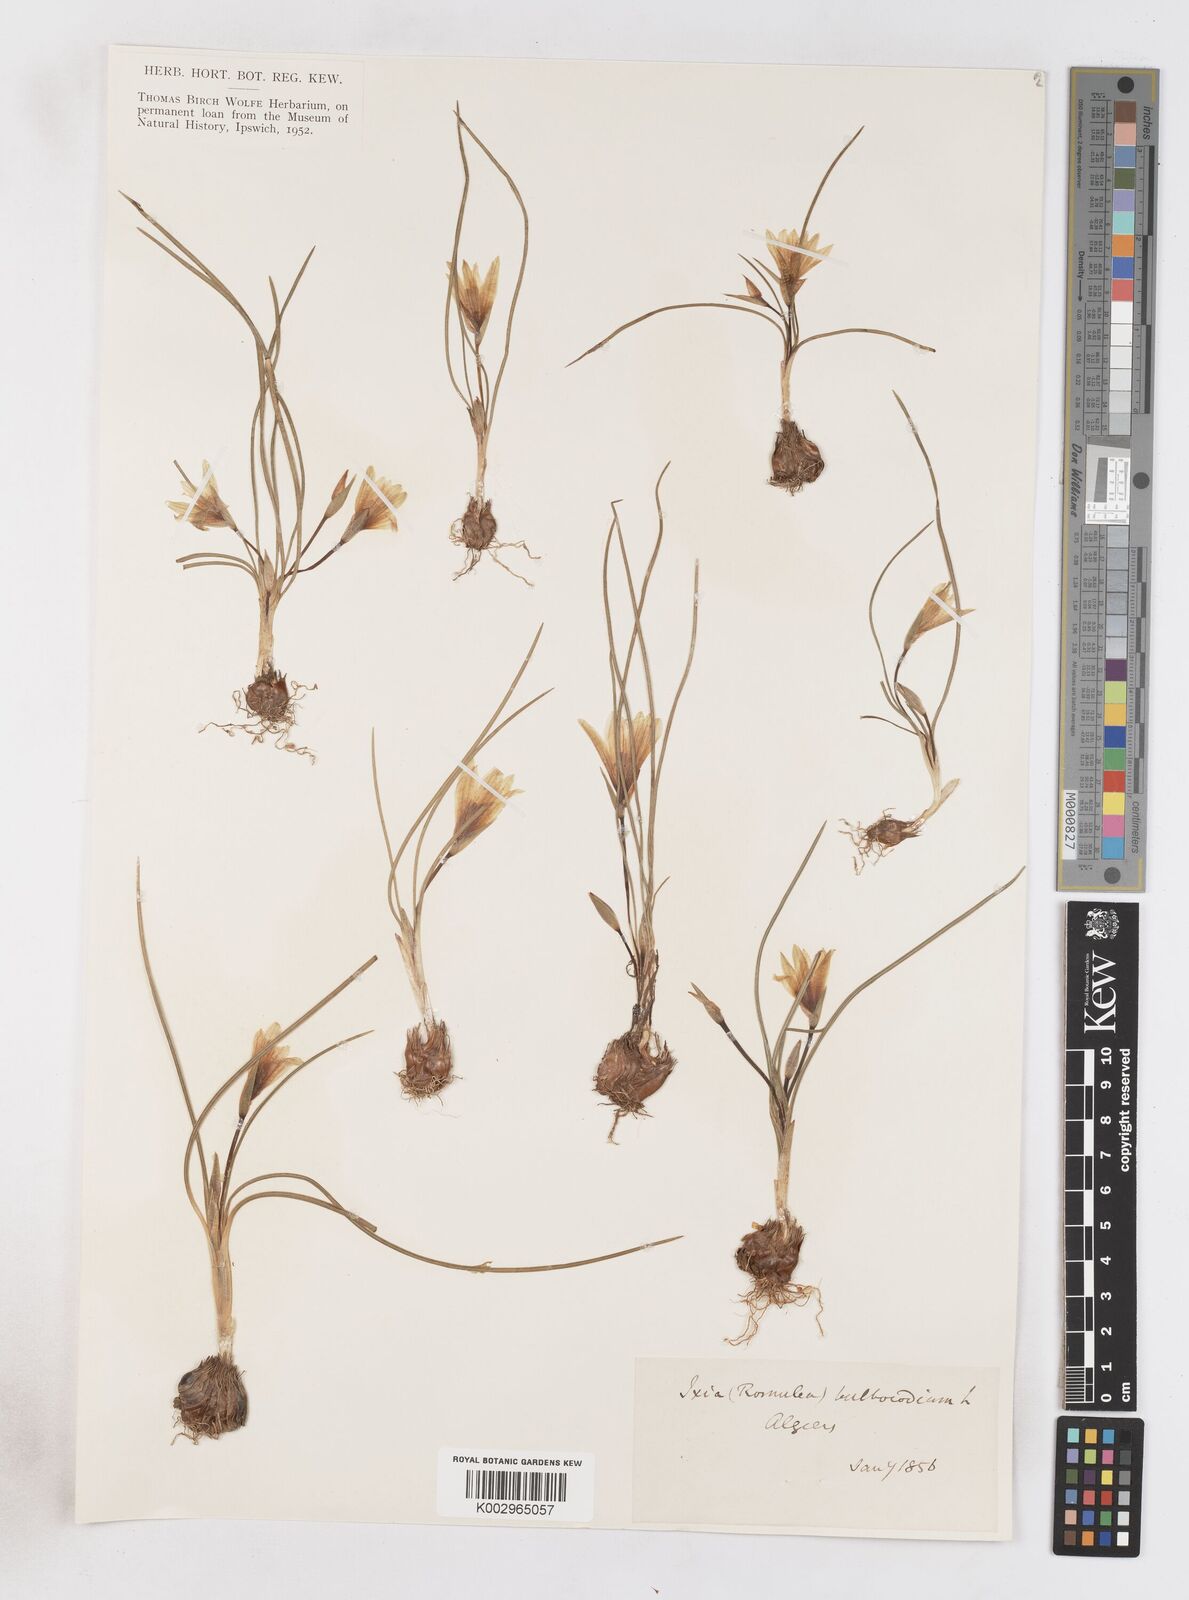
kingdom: Plantae
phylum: Tracheophyta
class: Liliopsida
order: Asparagales
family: Iridaceae
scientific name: Iridaceae
